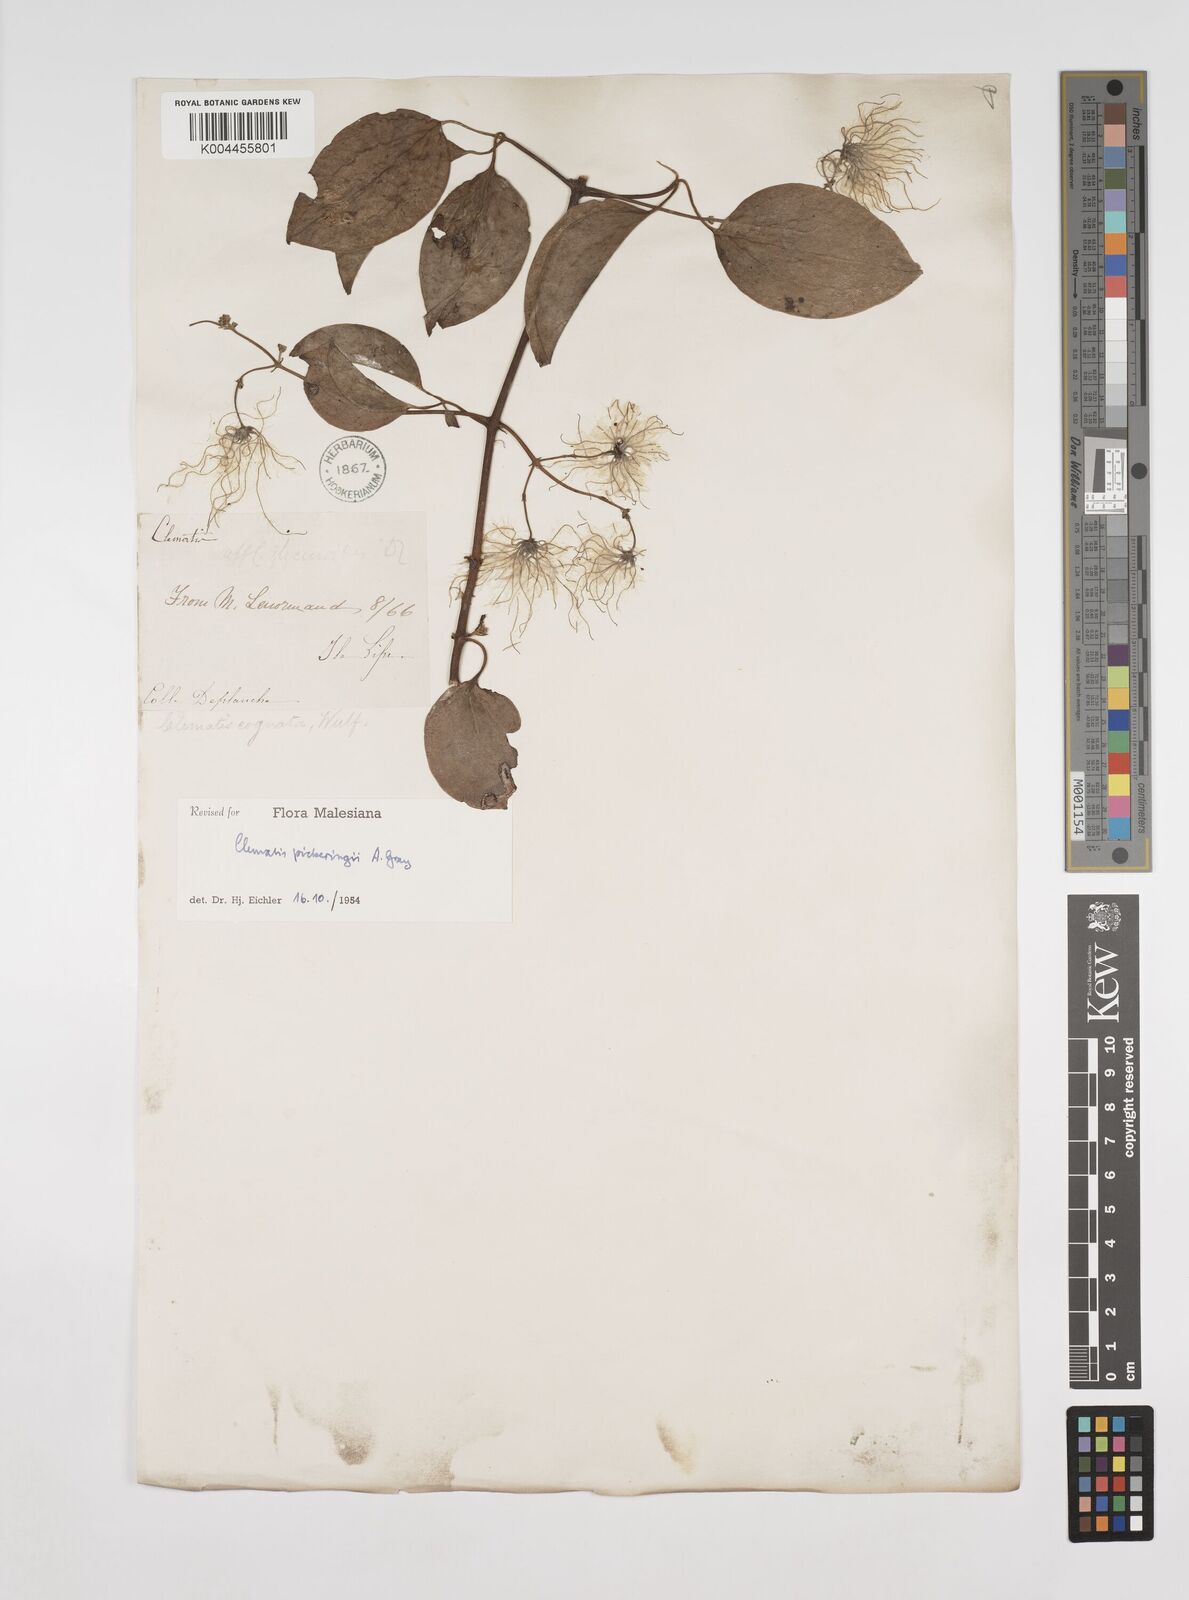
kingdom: Plantae
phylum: Tracheophyta
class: Magnoliopsida
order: Ranunculales
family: Ranunculaceae
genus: Clematis
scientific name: Clematis pickeringii
